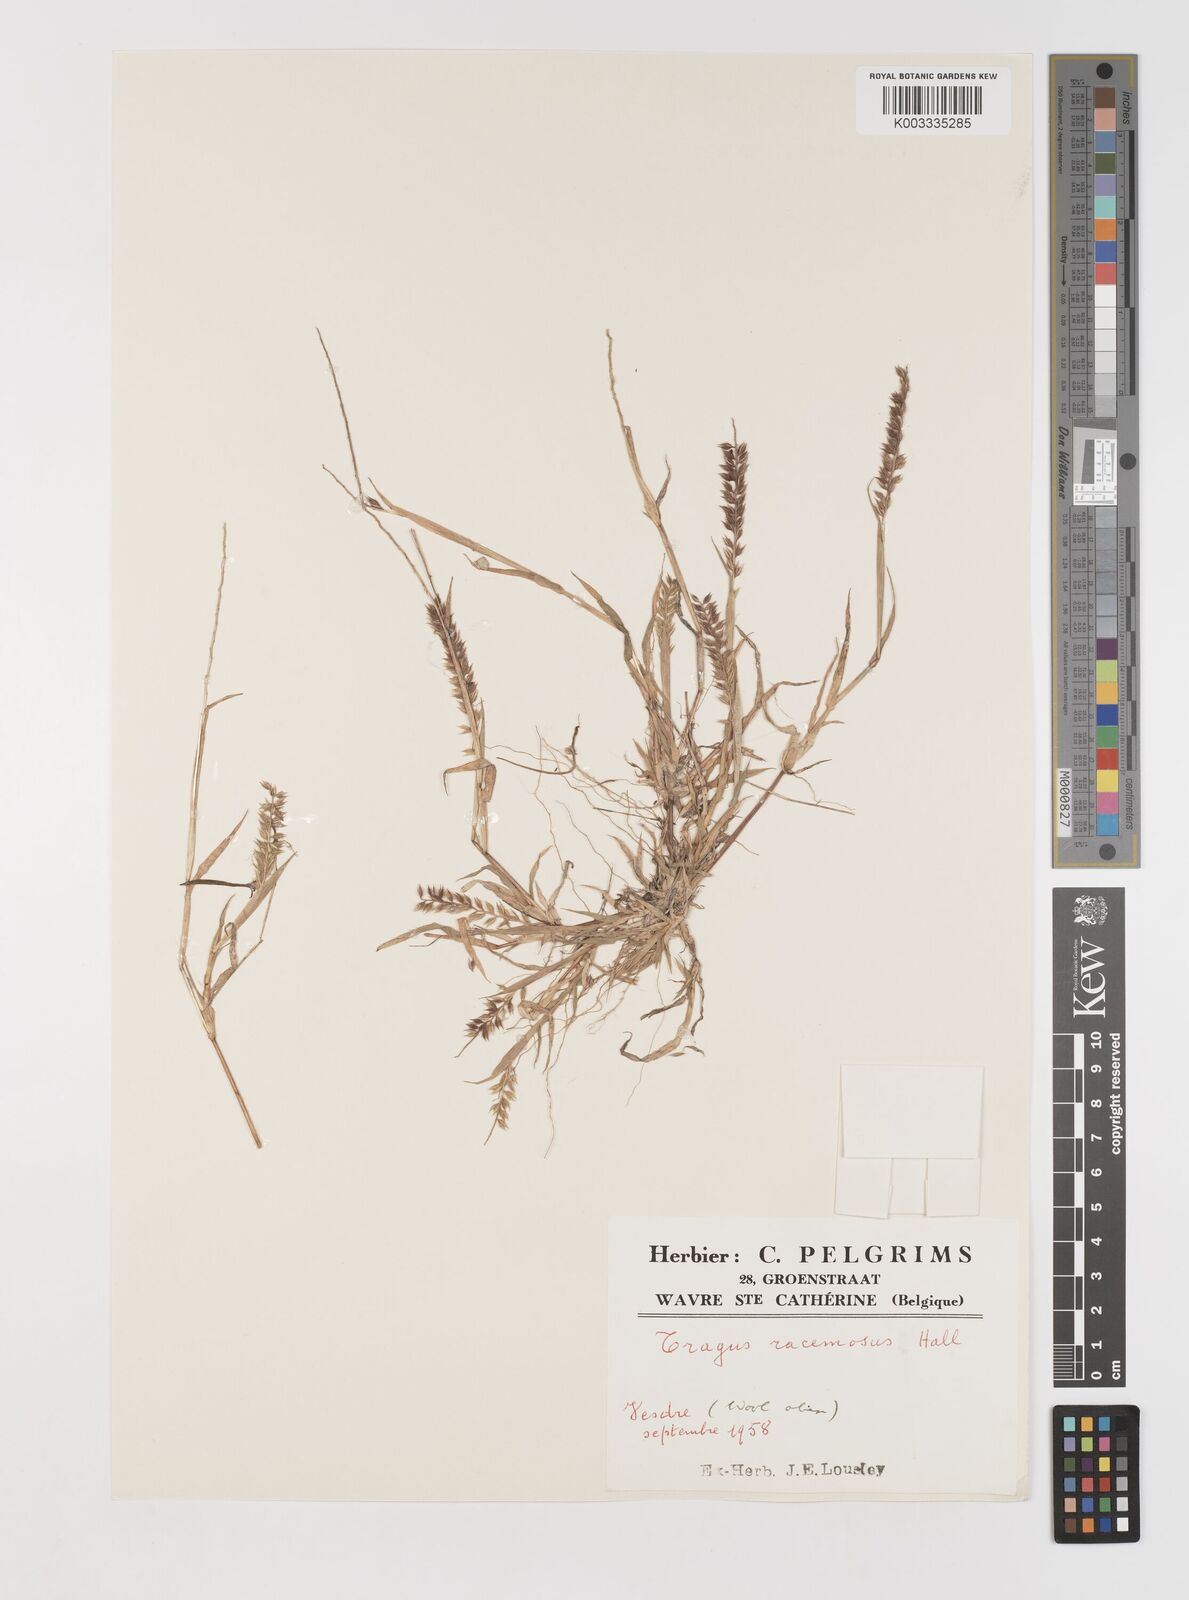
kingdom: Plantae
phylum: Tracheophyta
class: Liliopsida
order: Poales
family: Poaceae
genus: Tragus
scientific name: Tragus racemosus
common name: European bur-grass
